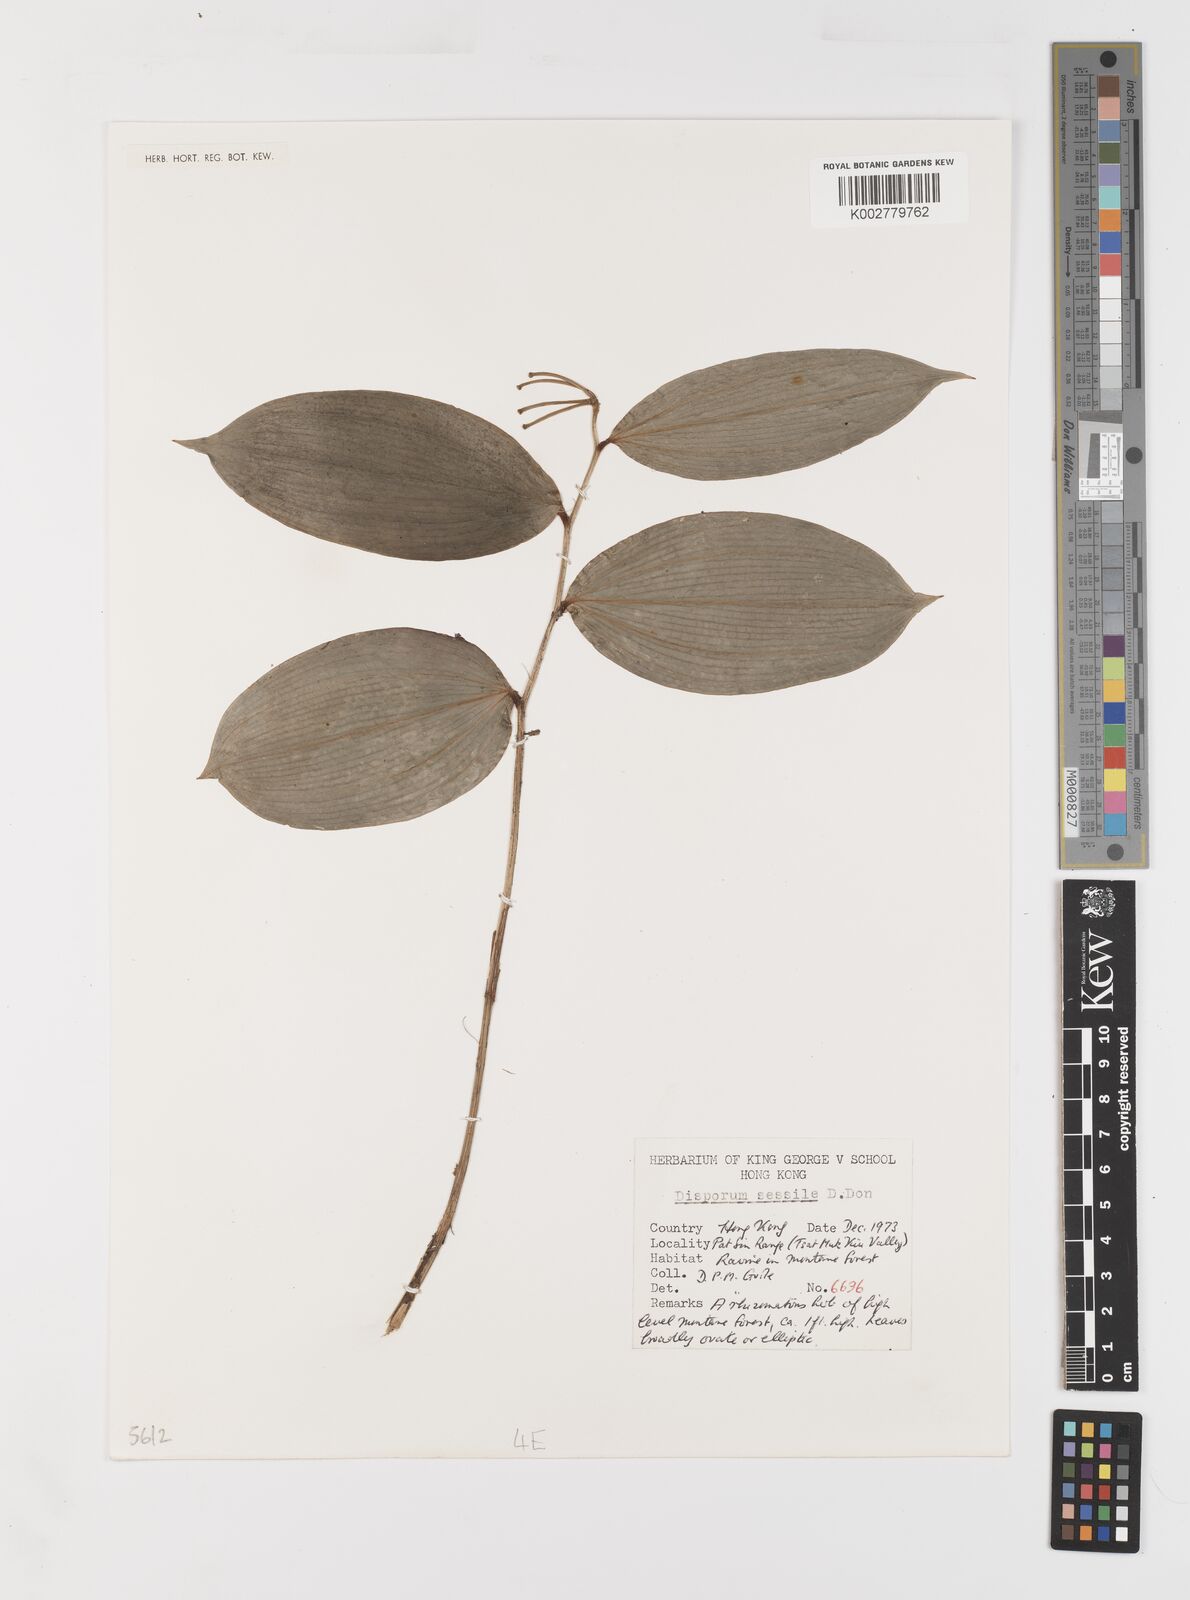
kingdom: Plantae
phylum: Tracheophyta
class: Liliopsida
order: Liliales
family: Colchicaceae
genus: Disporum
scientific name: Disporum sessile
